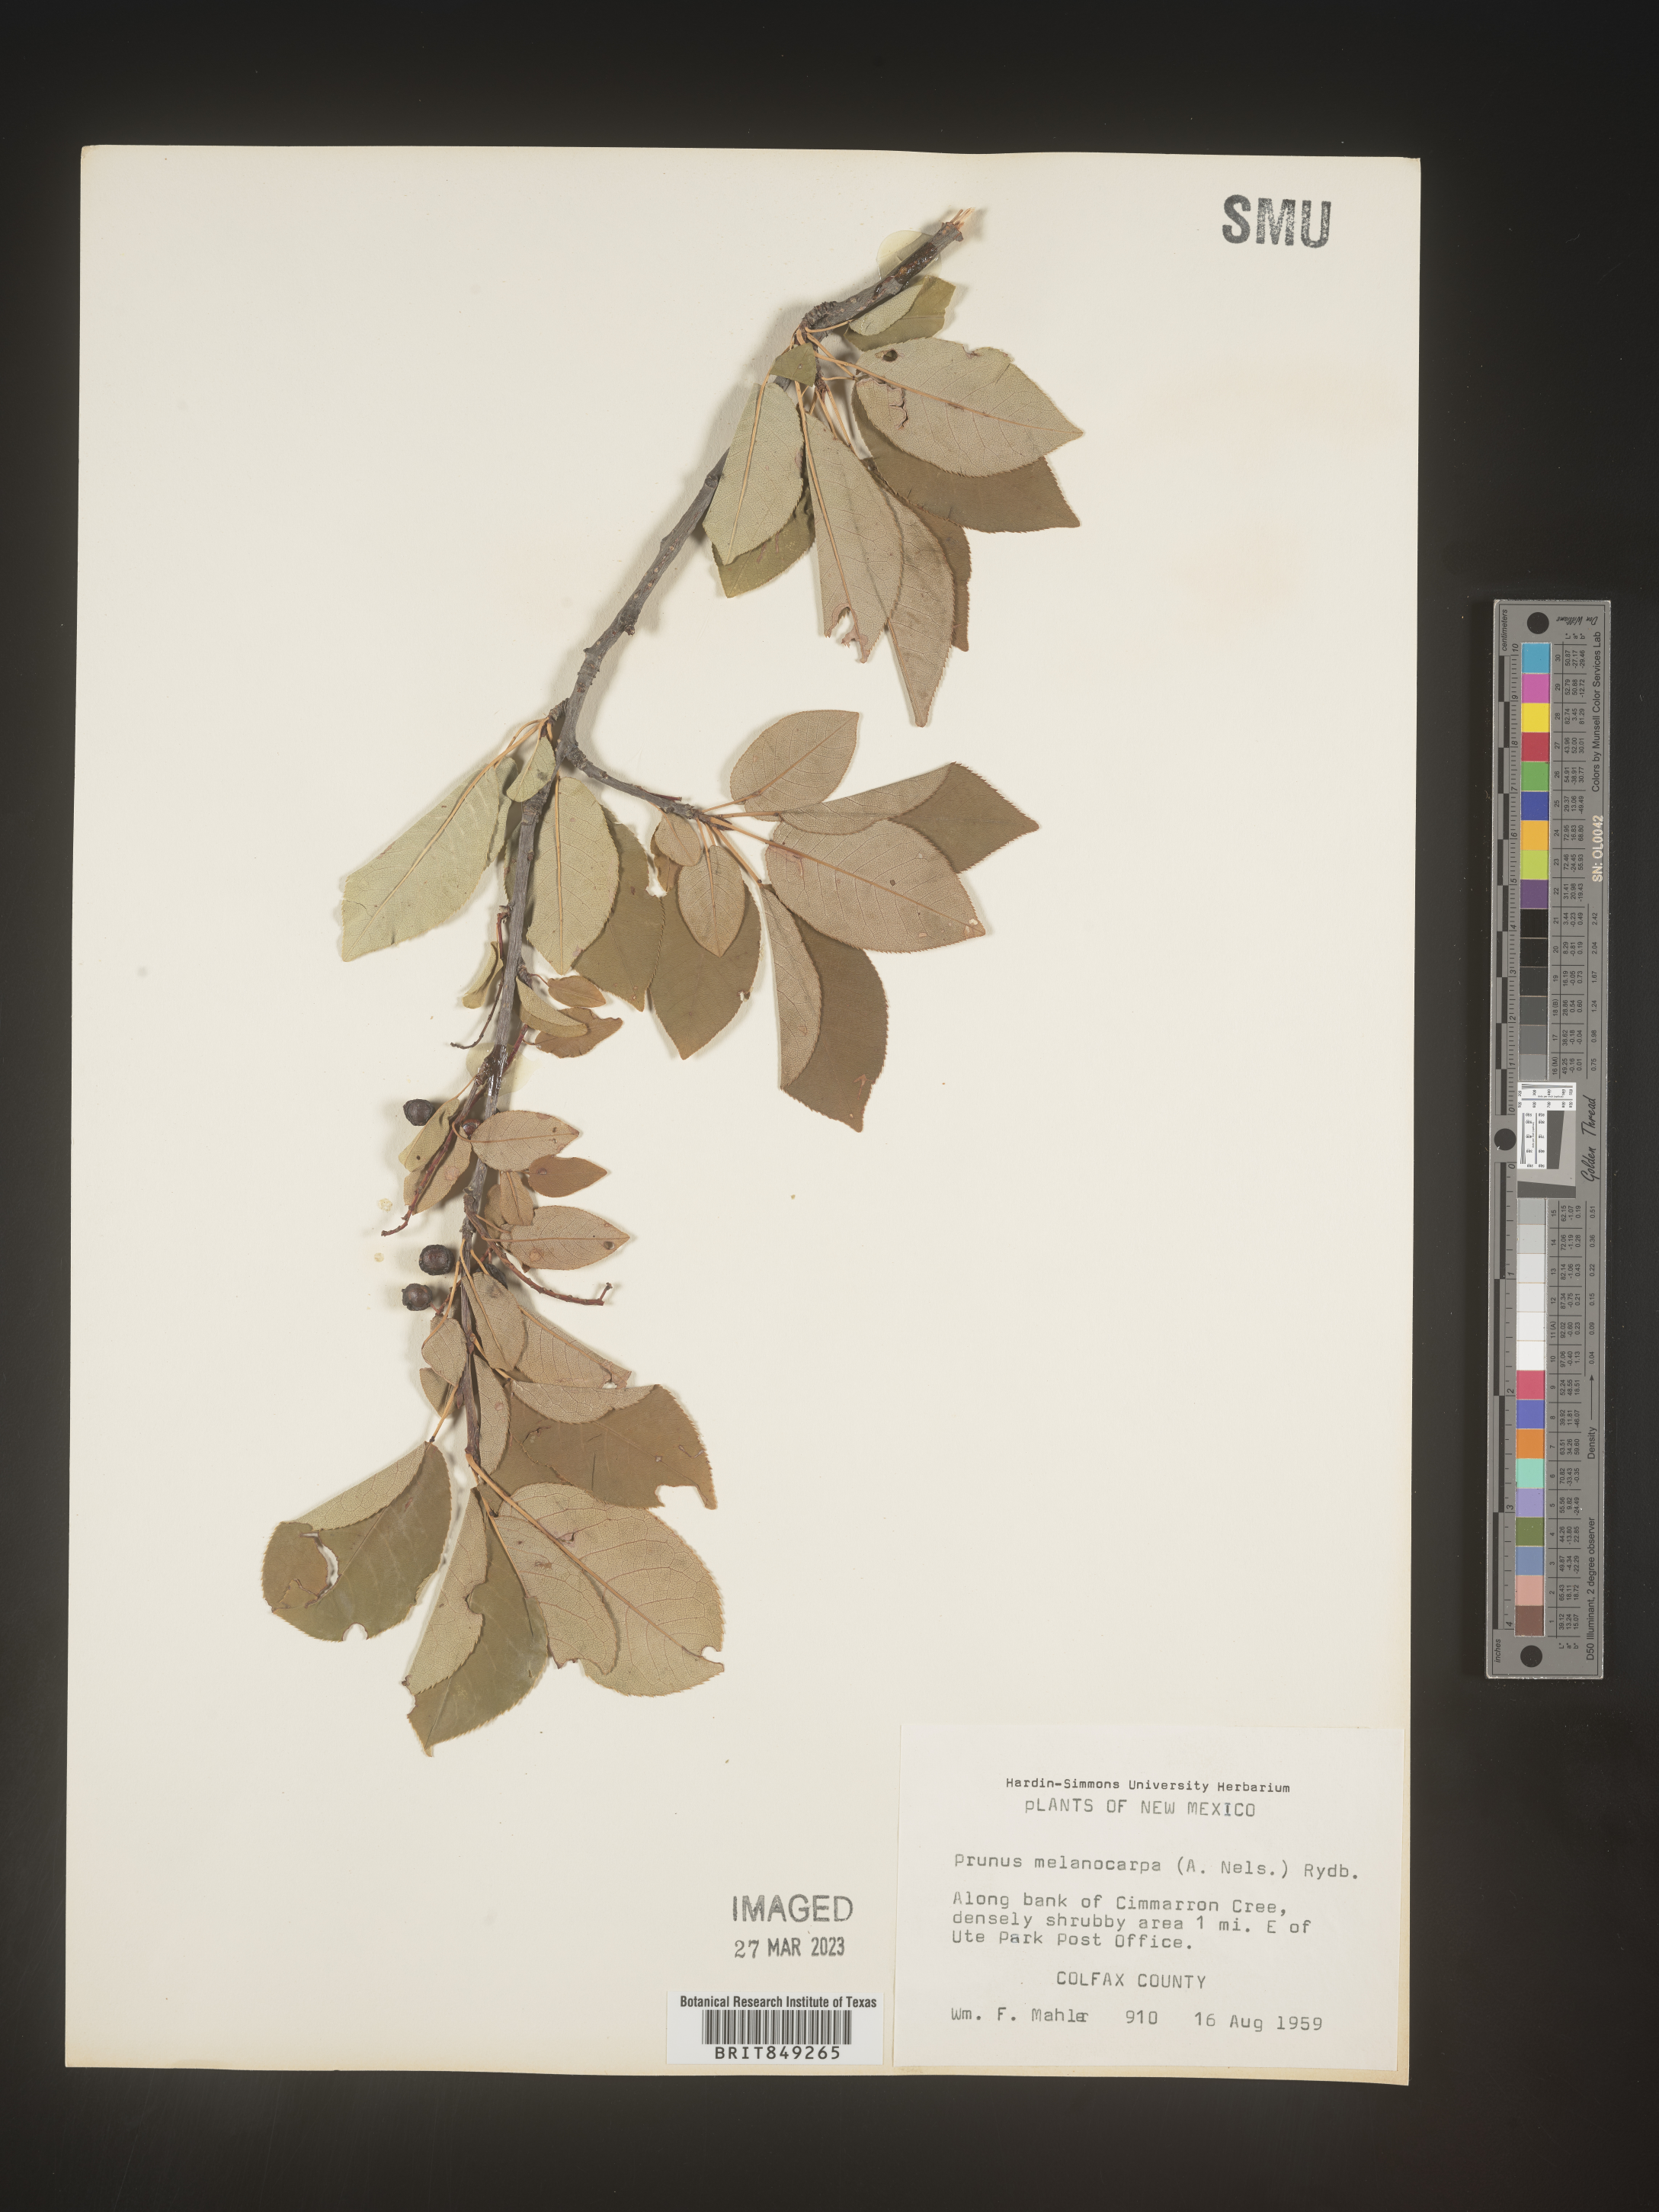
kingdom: Plantae
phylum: Tracheophyta
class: Magnoliopsida
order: Rosales
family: Rosaceae
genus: Prunus
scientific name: Prunus
